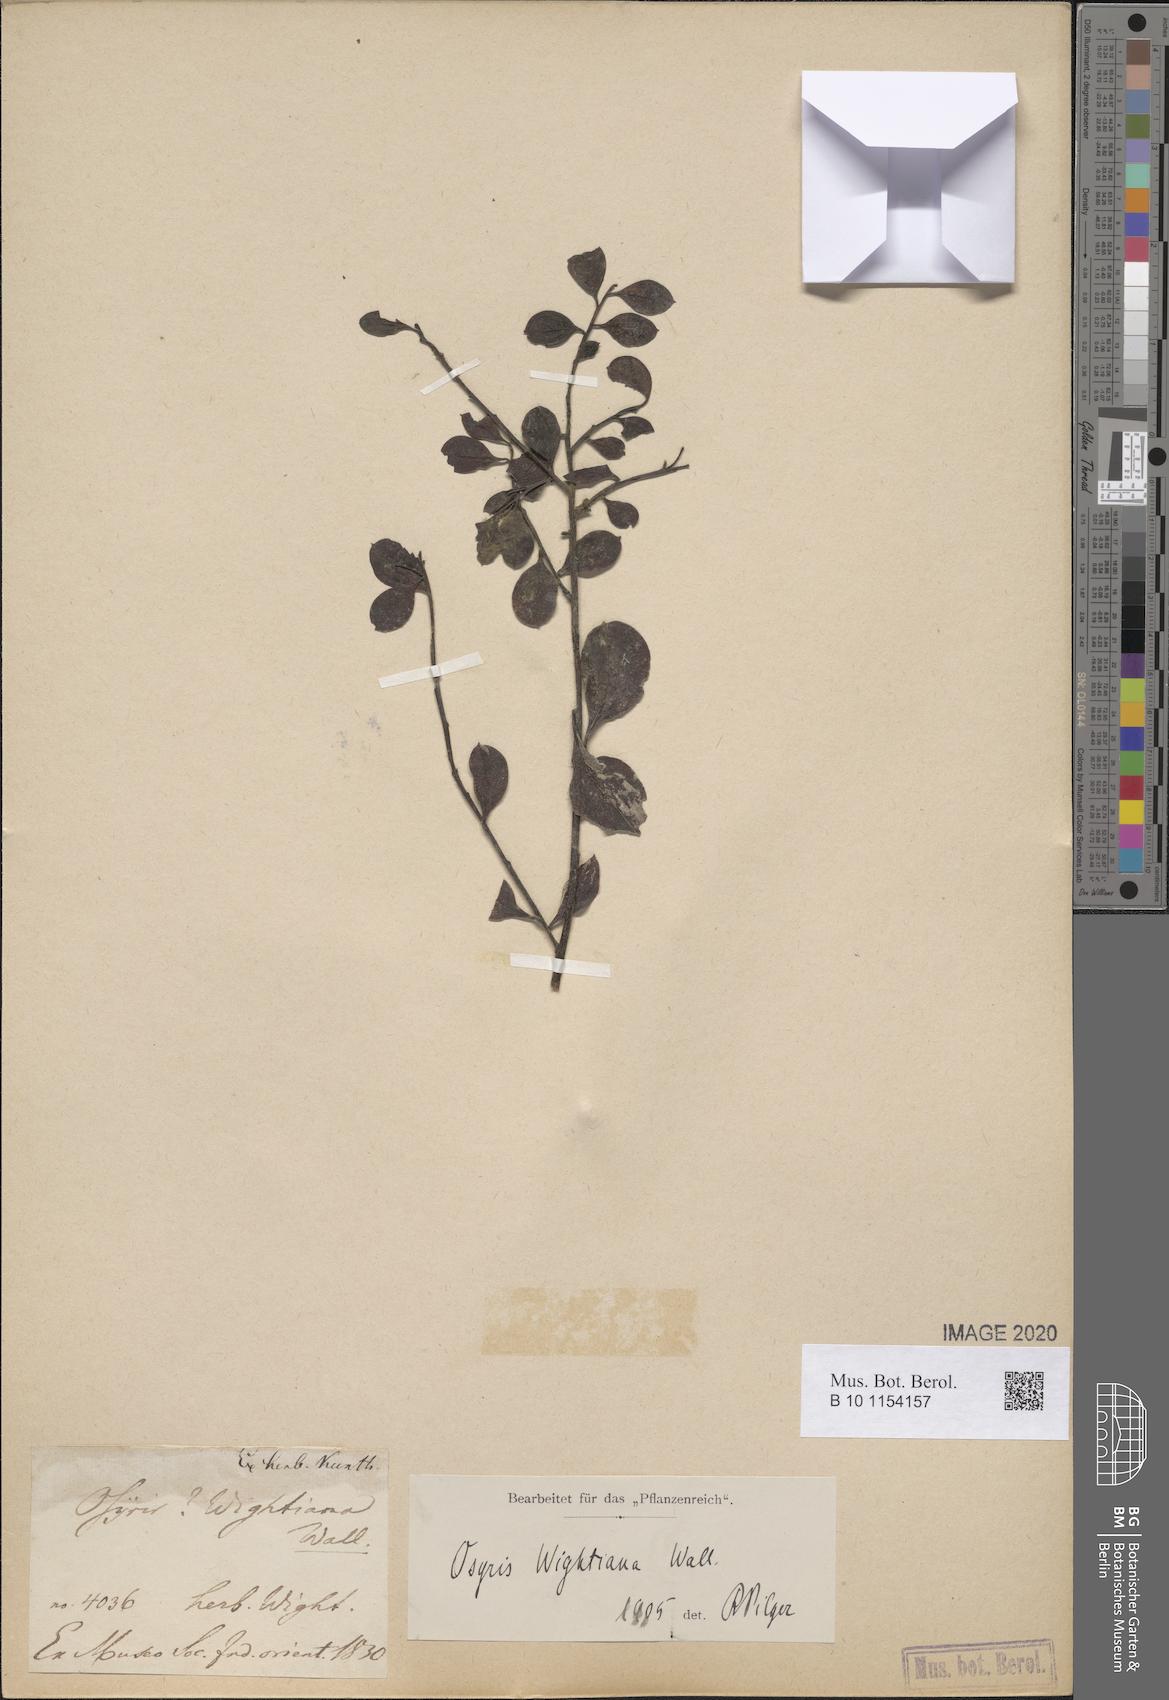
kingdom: Plantae
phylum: Tracheophyta
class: Magnoliopsida
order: Santalales
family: Santalaceae
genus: Osyris
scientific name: Osyris lanceolata
